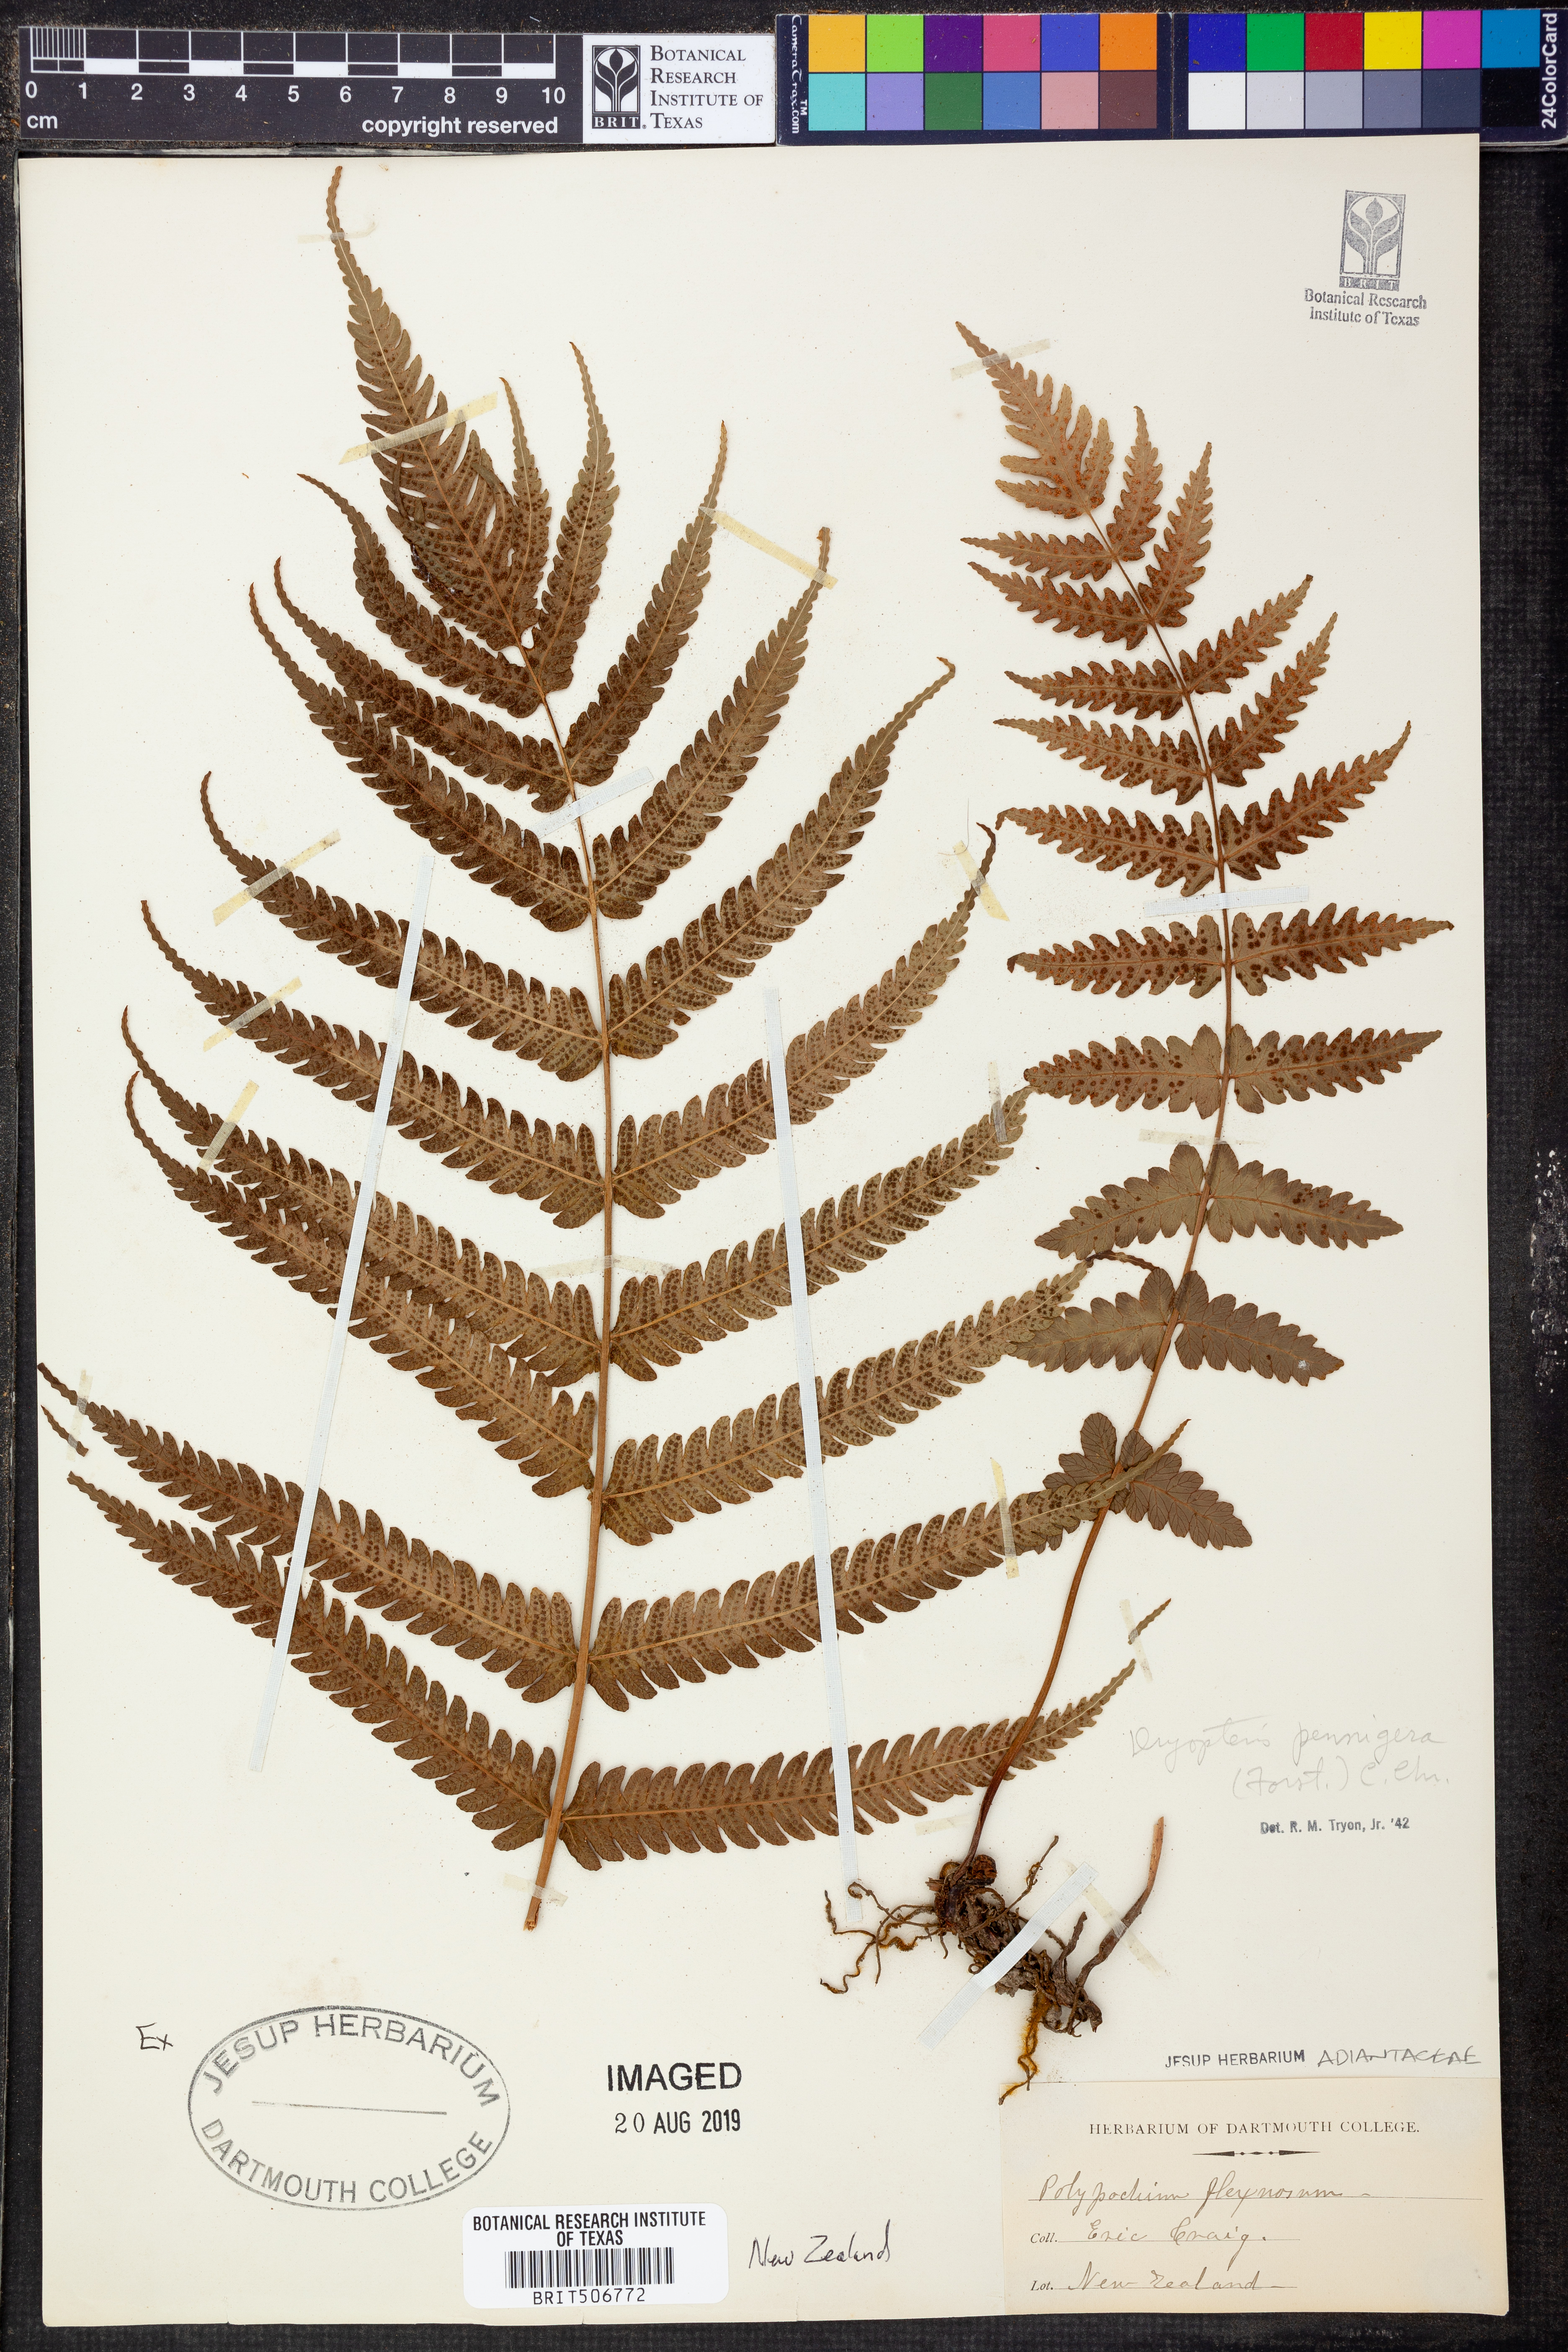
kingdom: Plantae
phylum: Tracheophyta
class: Polypodiopsida
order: Polypodiales
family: Thelypteridaceae
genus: Pakau
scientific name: Pakau pennigera
